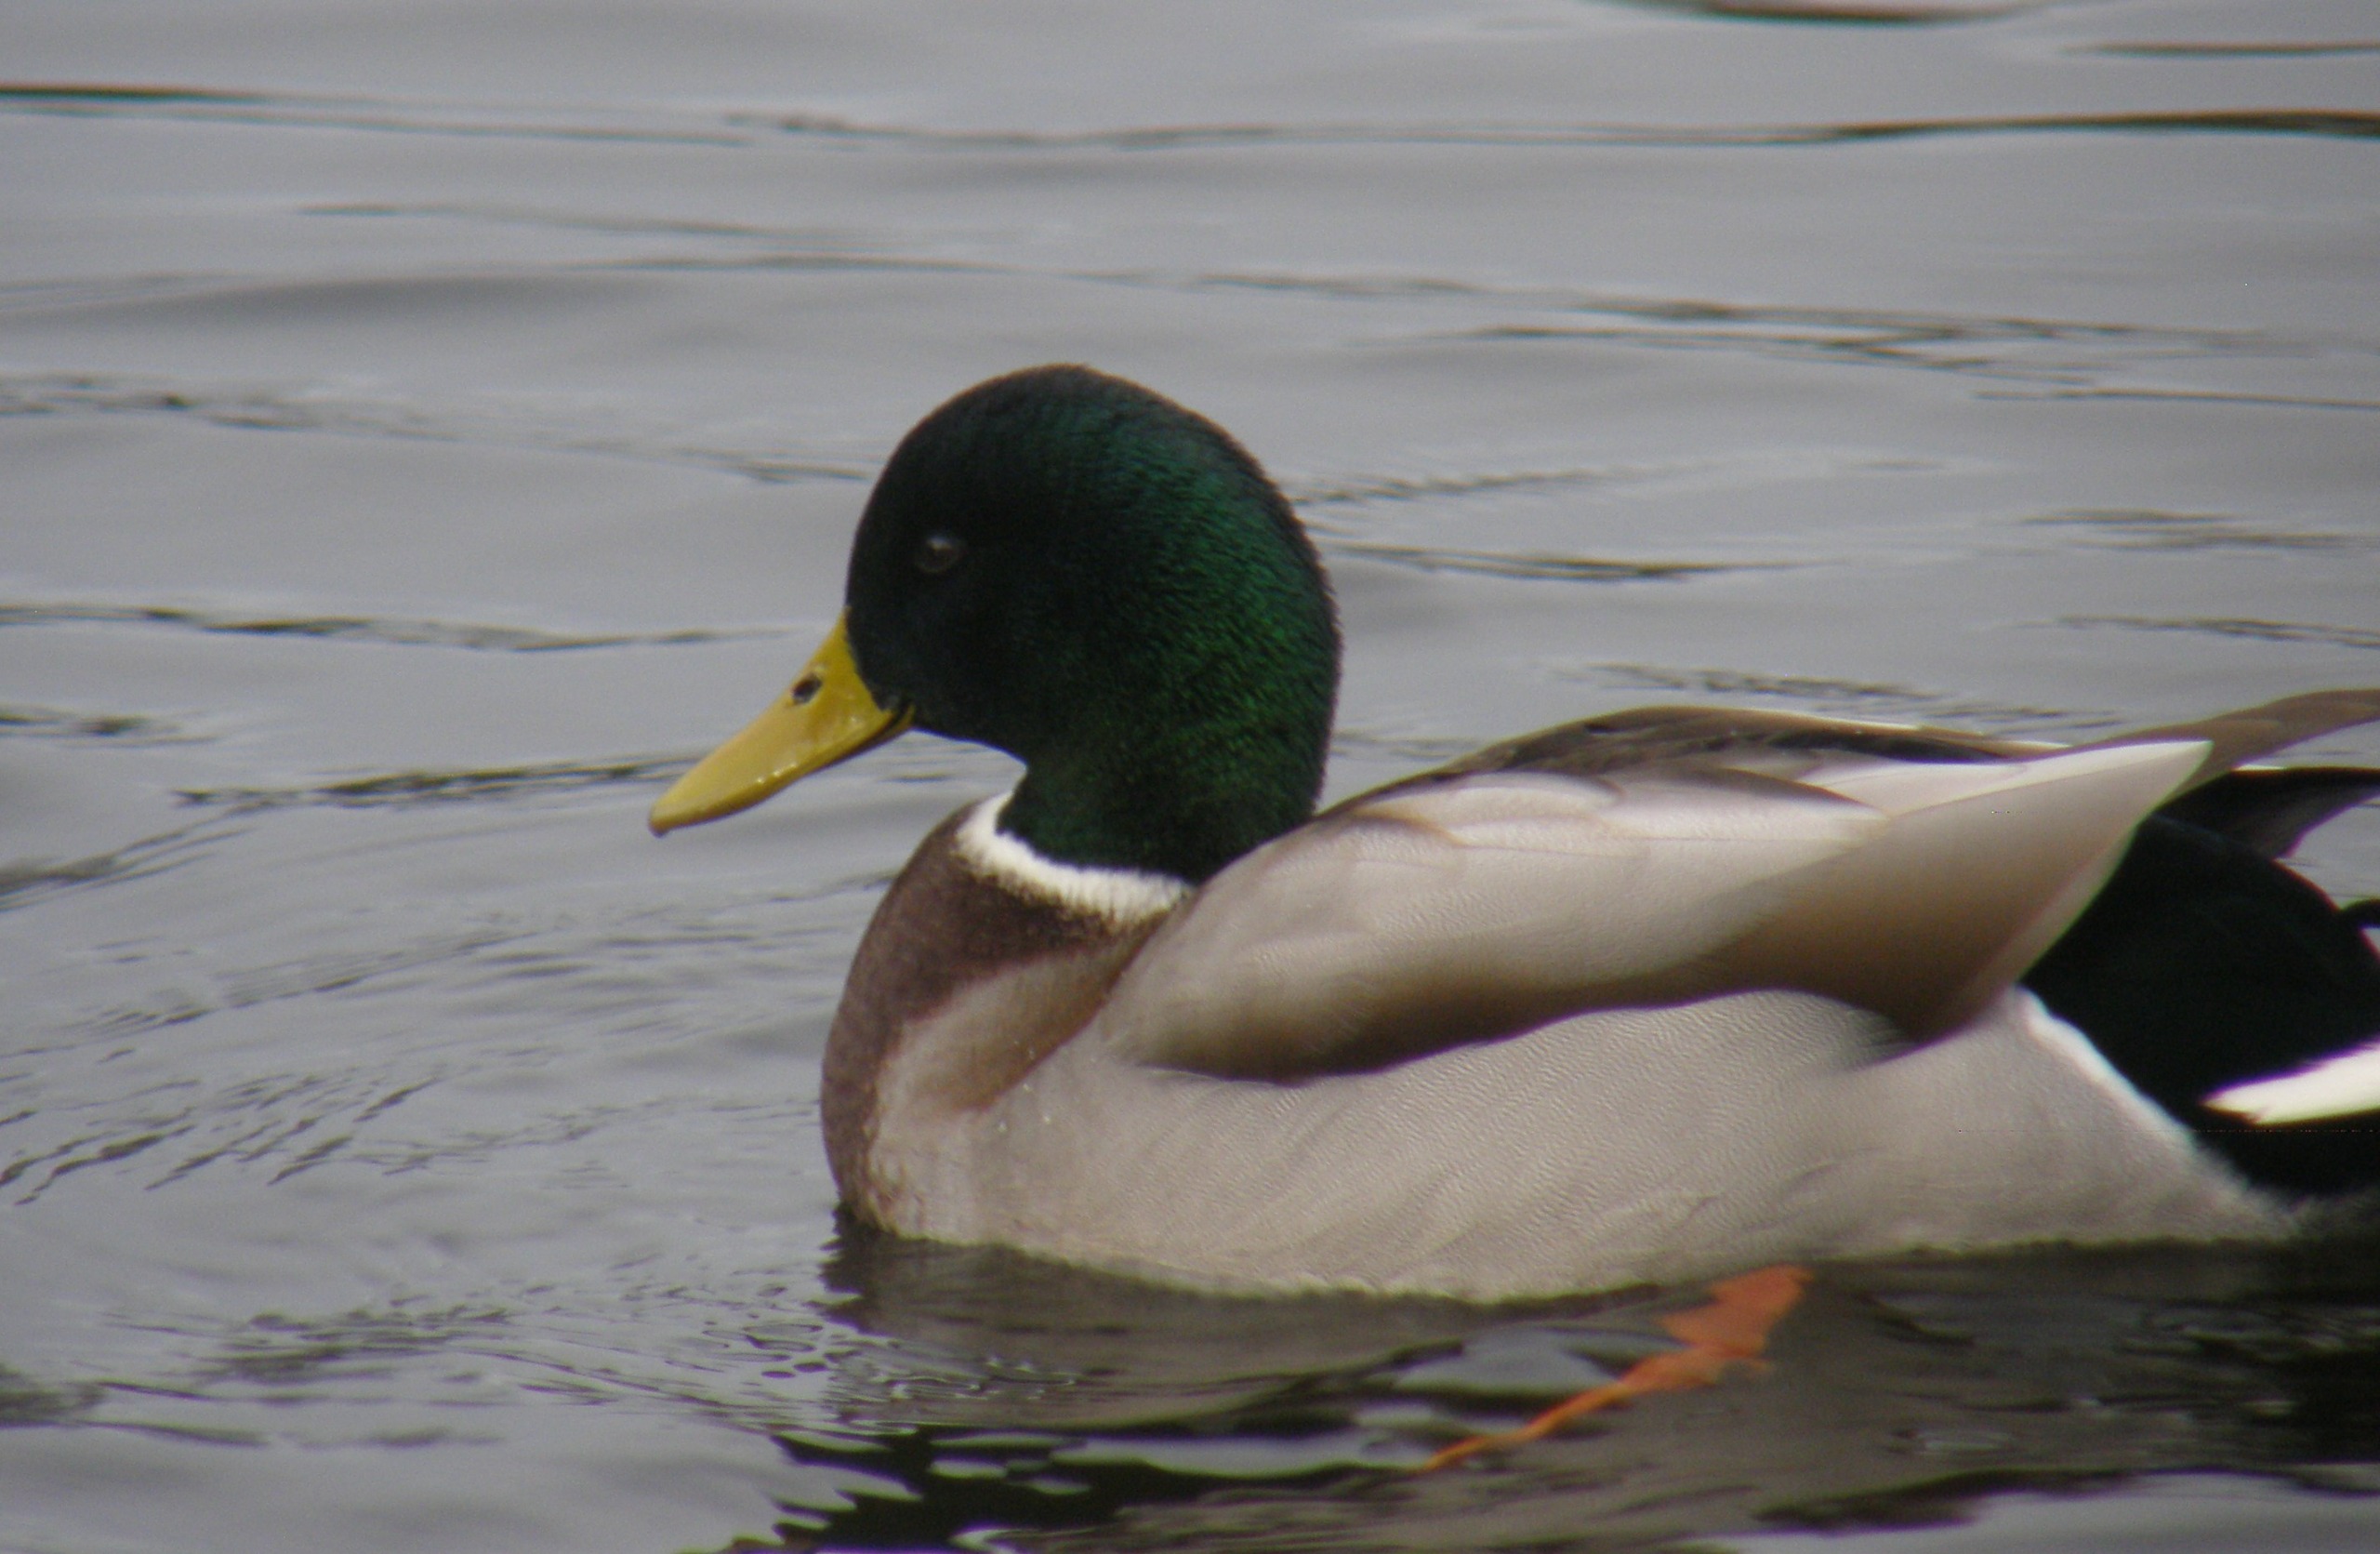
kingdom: Animalia
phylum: Chordata
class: Aves
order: Anseriformes
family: Anatidae
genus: Anas
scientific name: Anas platyrhynchos
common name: Gråand
